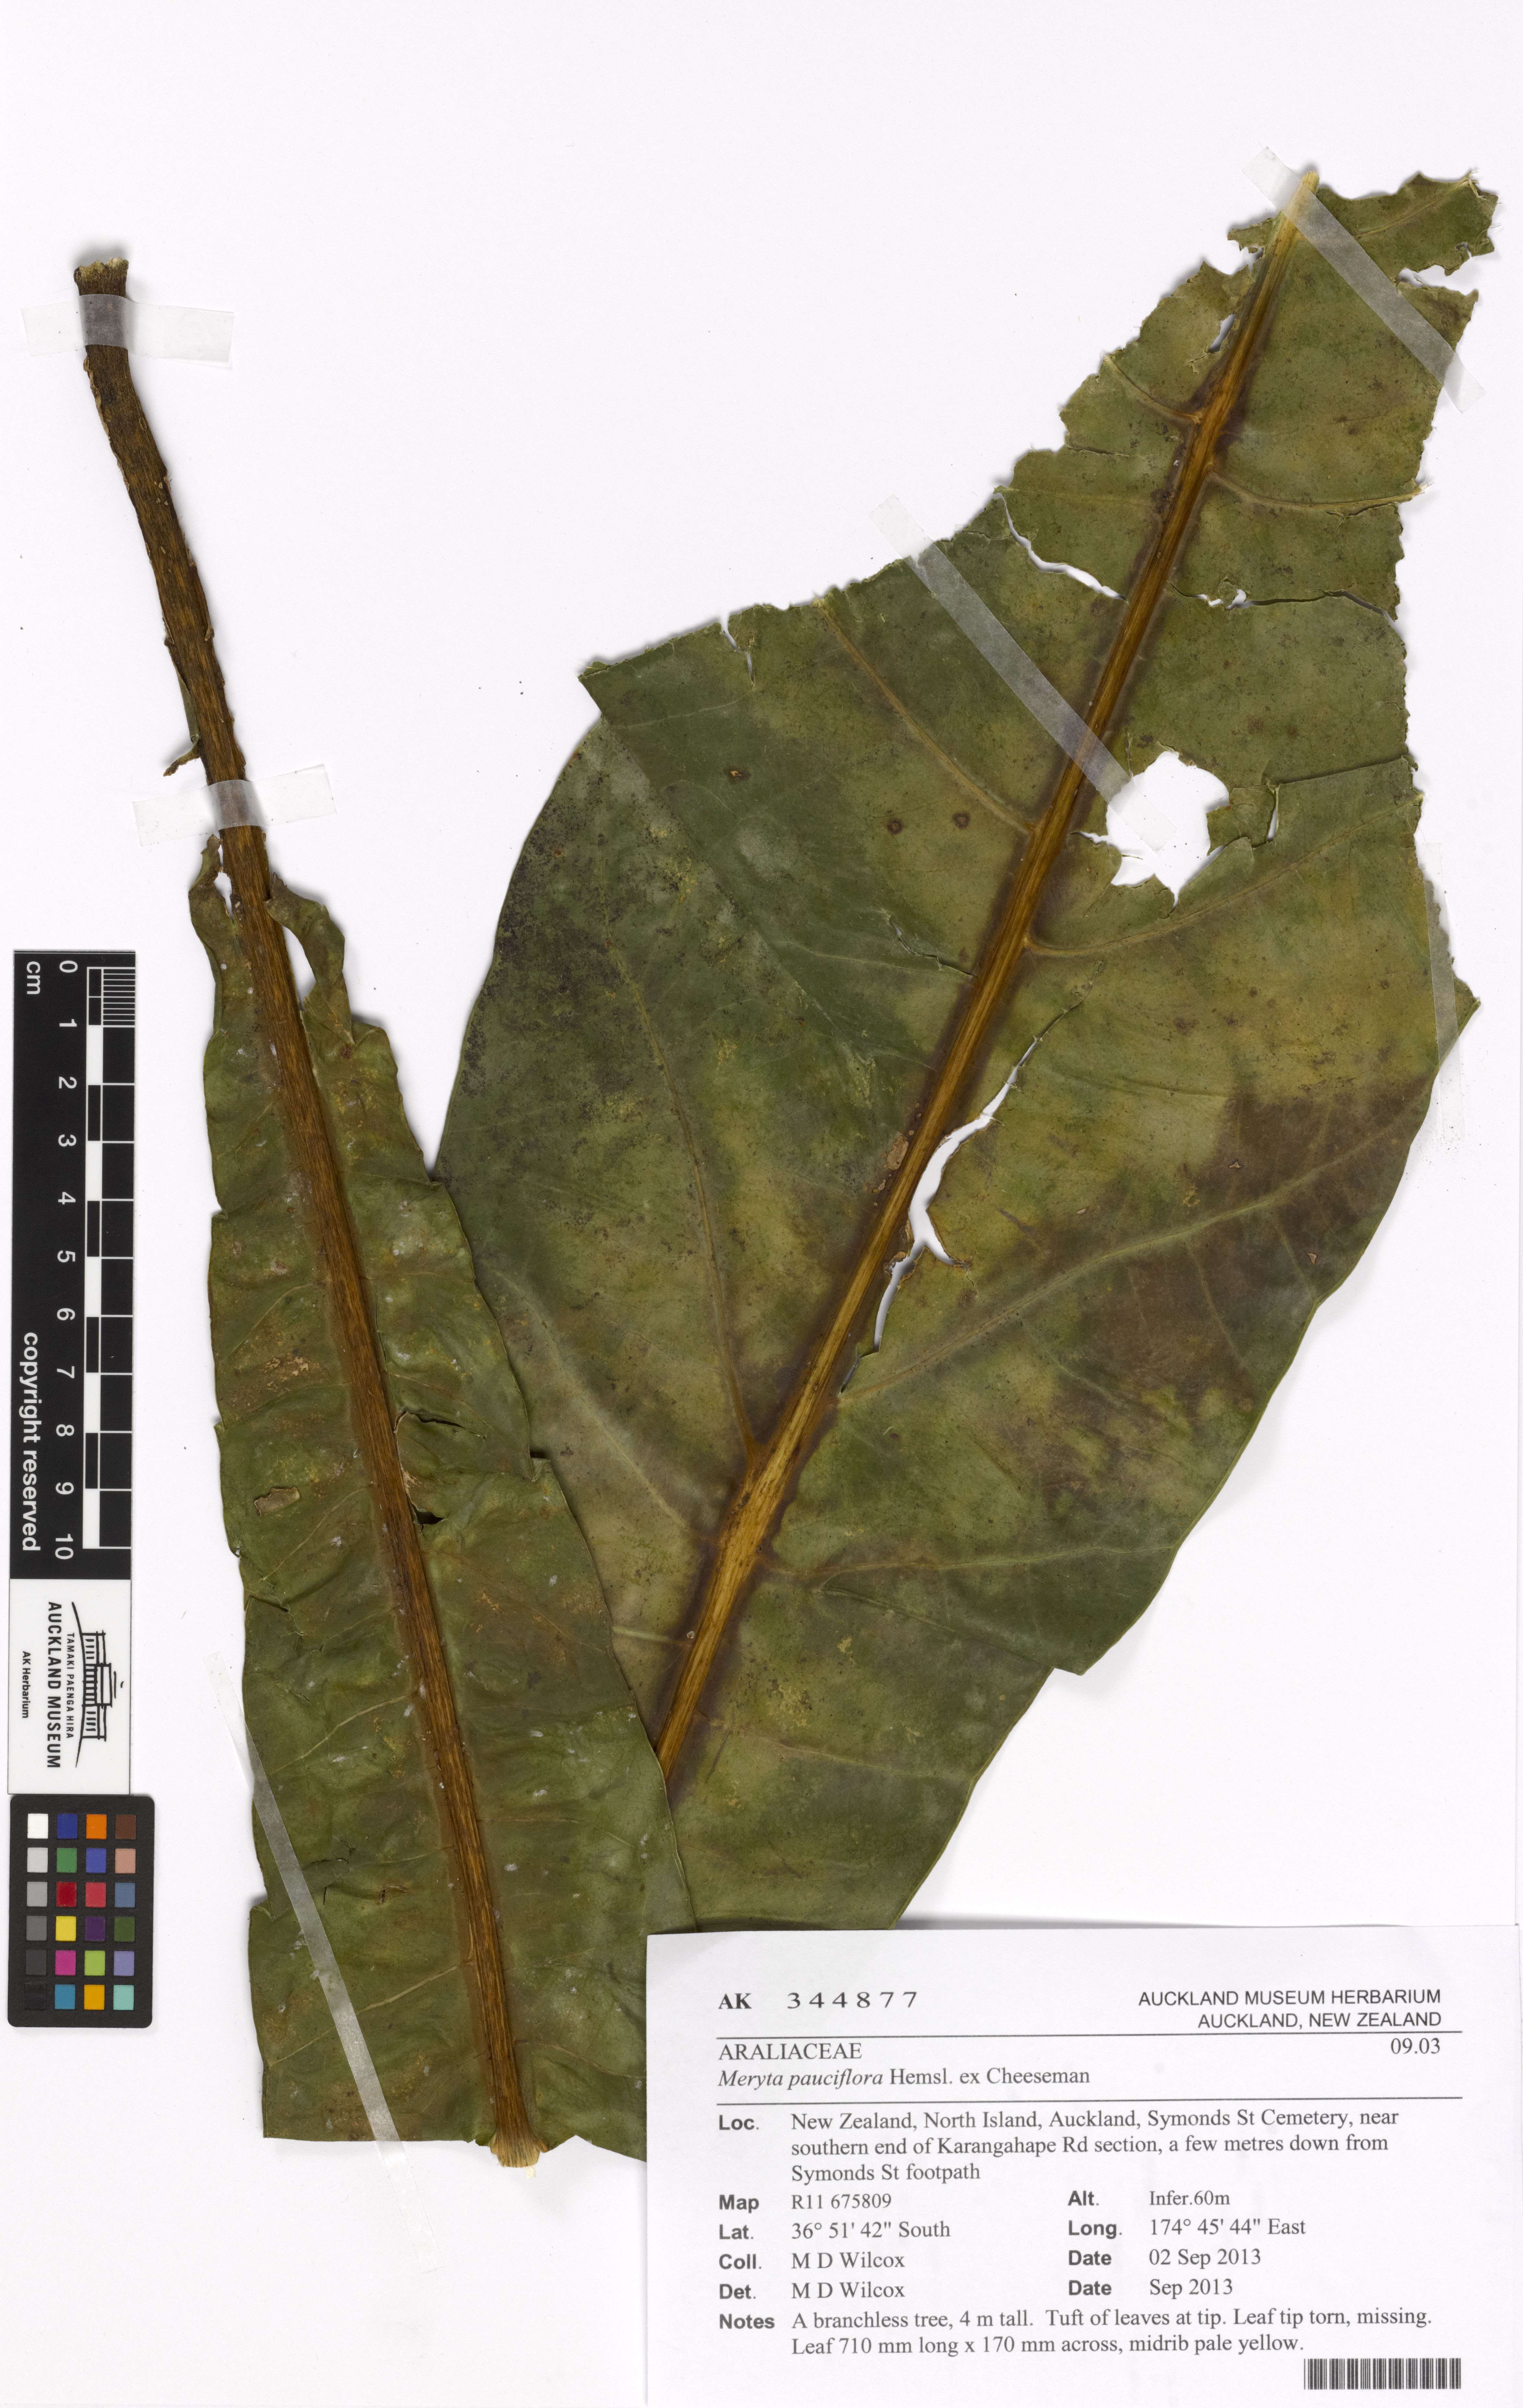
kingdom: Plantae
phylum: Tracheophyta
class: Magnoliopsida
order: Apiales
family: Araliaceae
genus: Meryta
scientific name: Meryta denhamii
